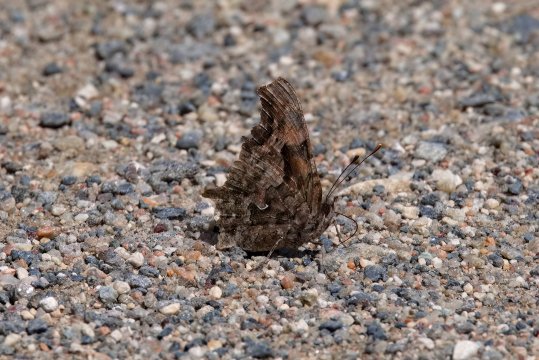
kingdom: Animalia
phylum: Arthropoda
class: Insecta
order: Lepidoptera
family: Nymphalidae
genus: Polygonia
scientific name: Polygonia faunus
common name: Green Comma
